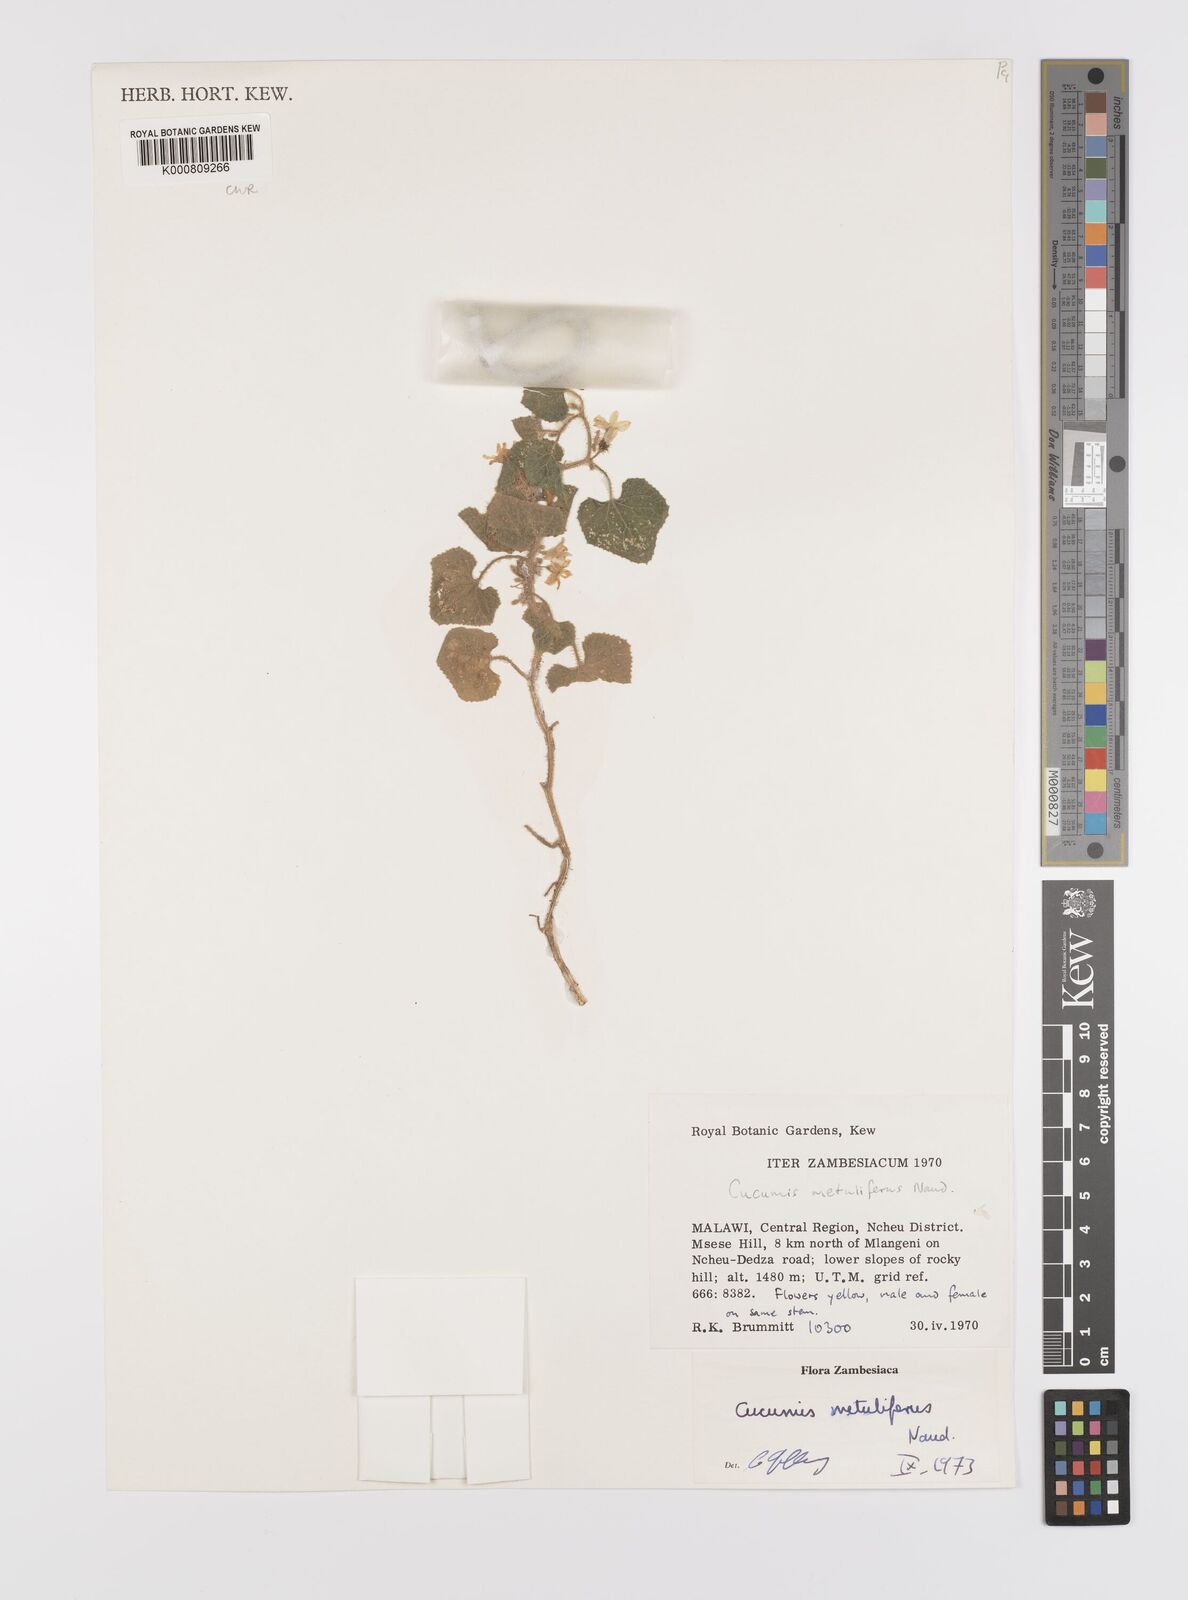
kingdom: Plantae
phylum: Tracheophyta
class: Magnoliopsida
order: Cucurbitales
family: Cucurbitaceae
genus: Cucumis
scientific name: Cucumis
